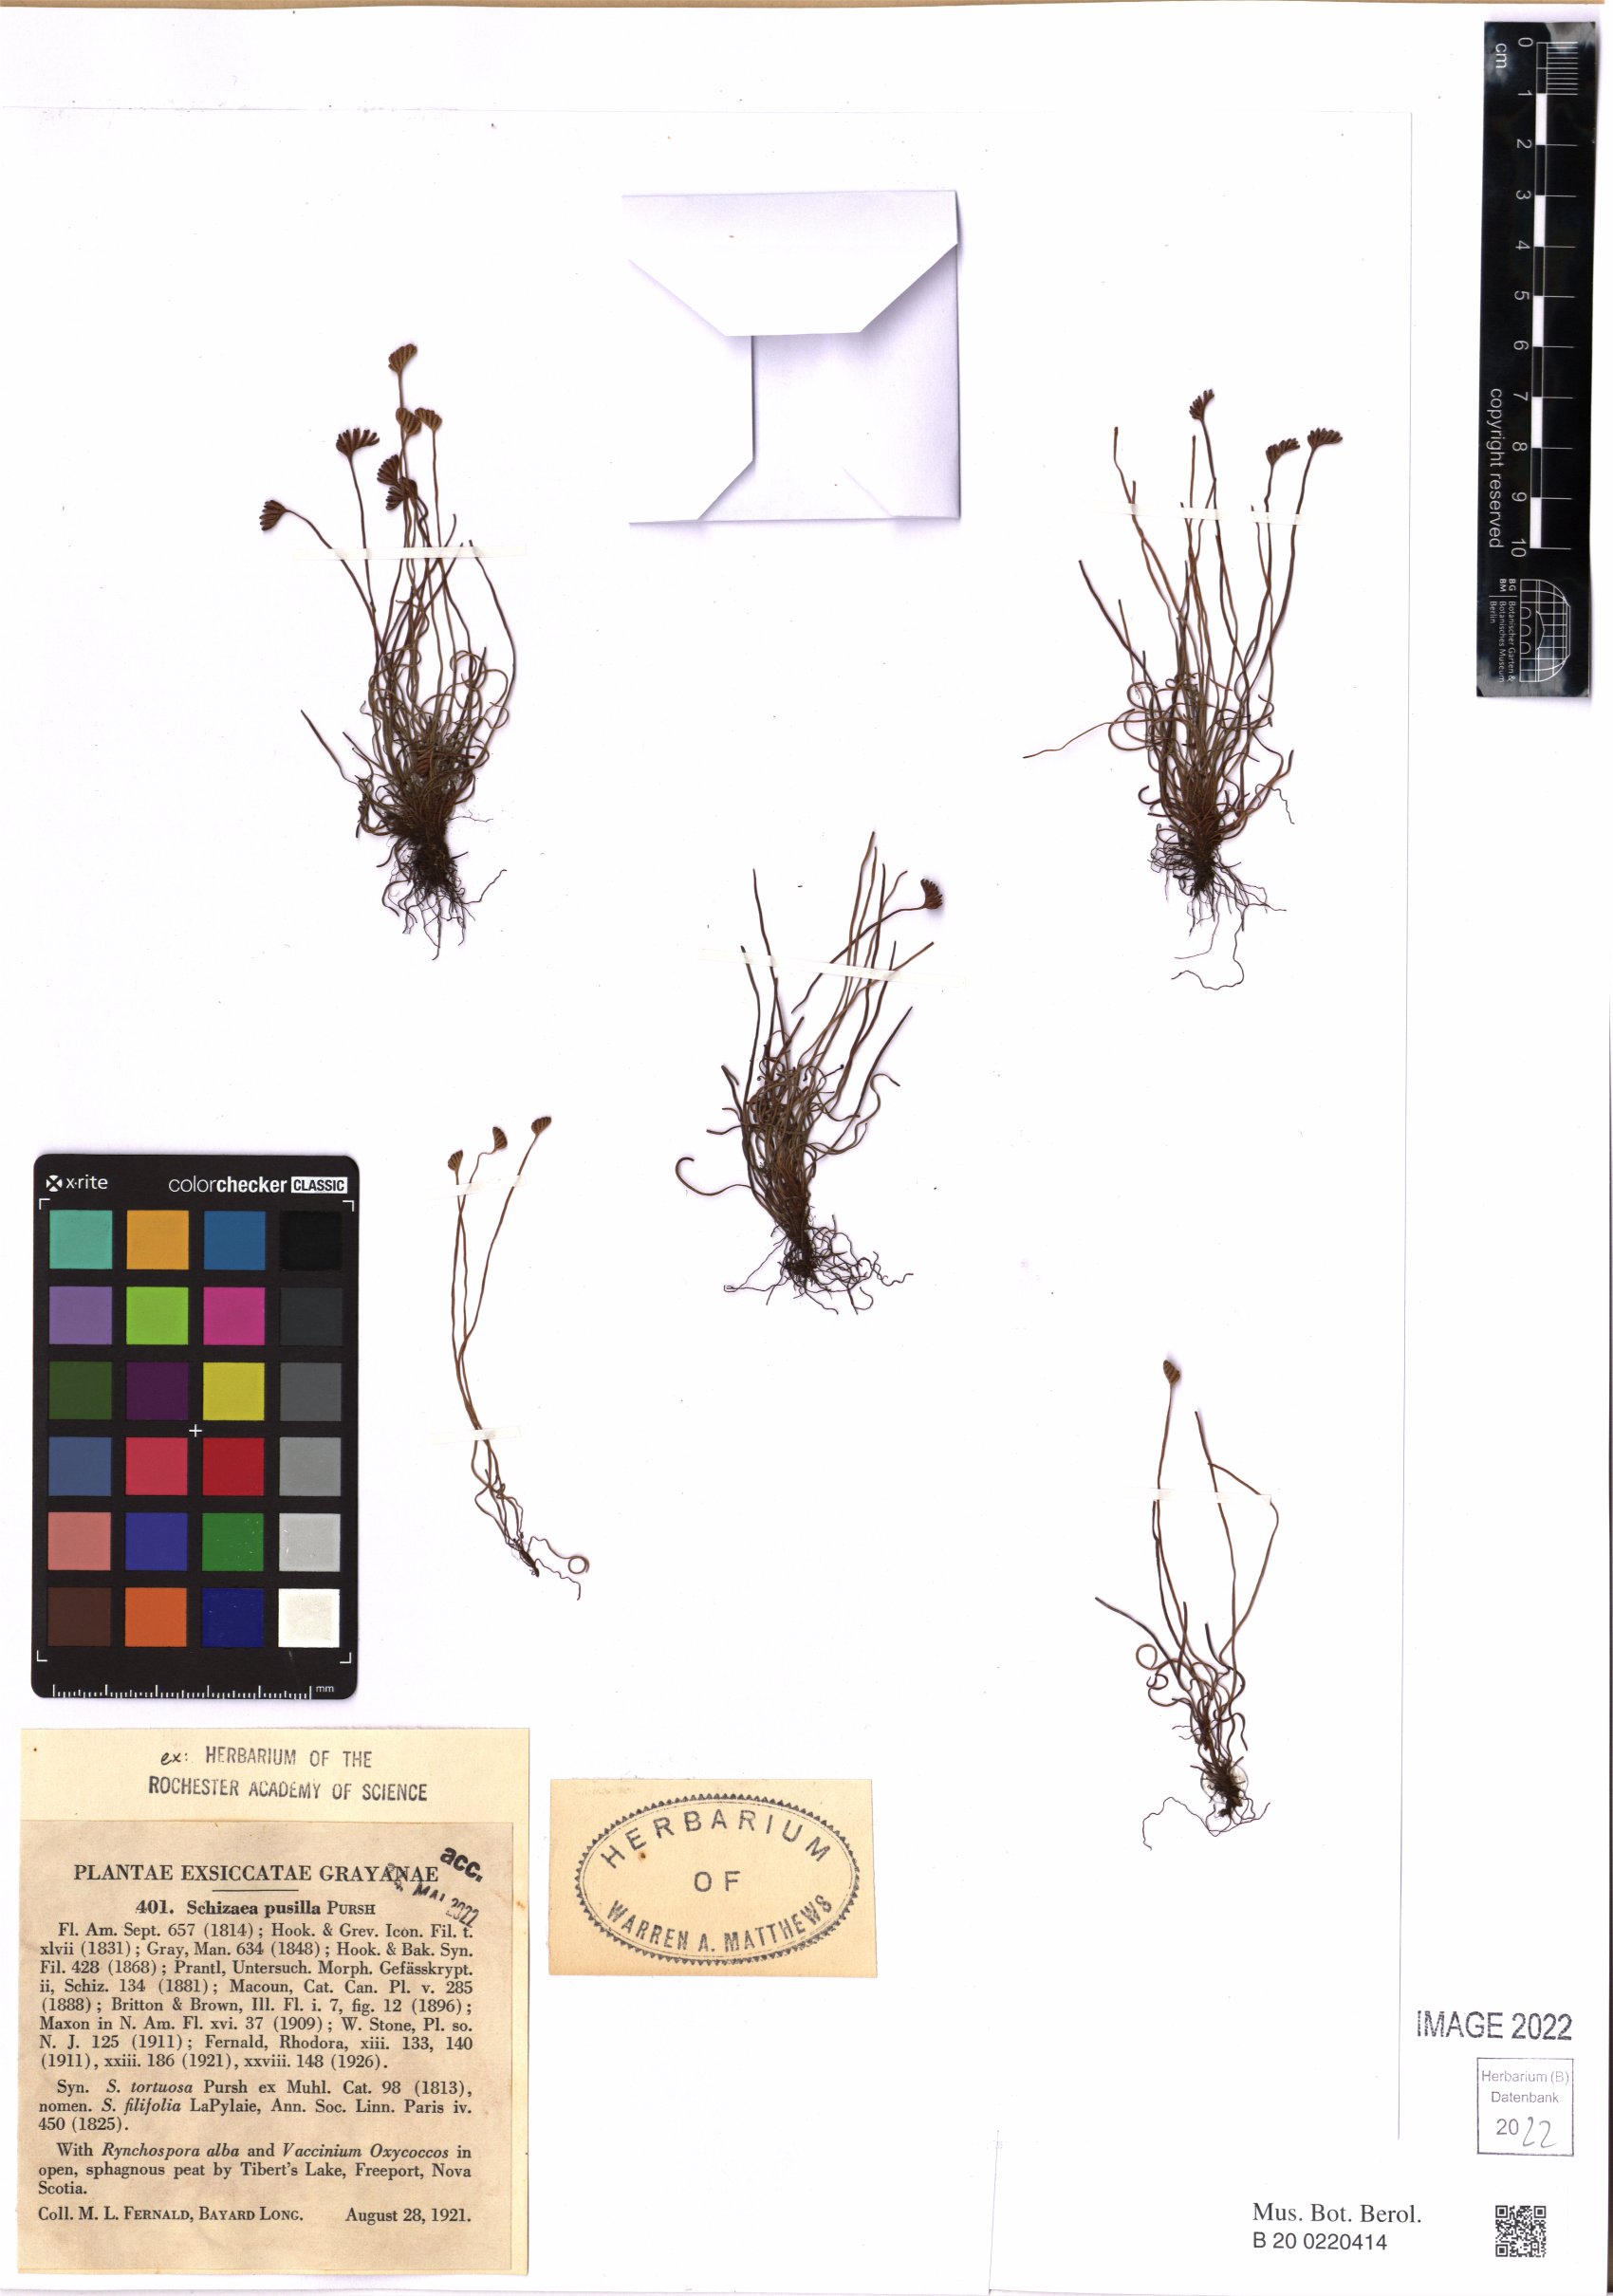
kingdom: Plantae
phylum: Tracheophyta
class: Polypodiopsida
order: Schizaeales
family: Schizaeaceae
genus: Schizaea
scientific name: Schizaea pusilla
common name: Curly-grass fern
